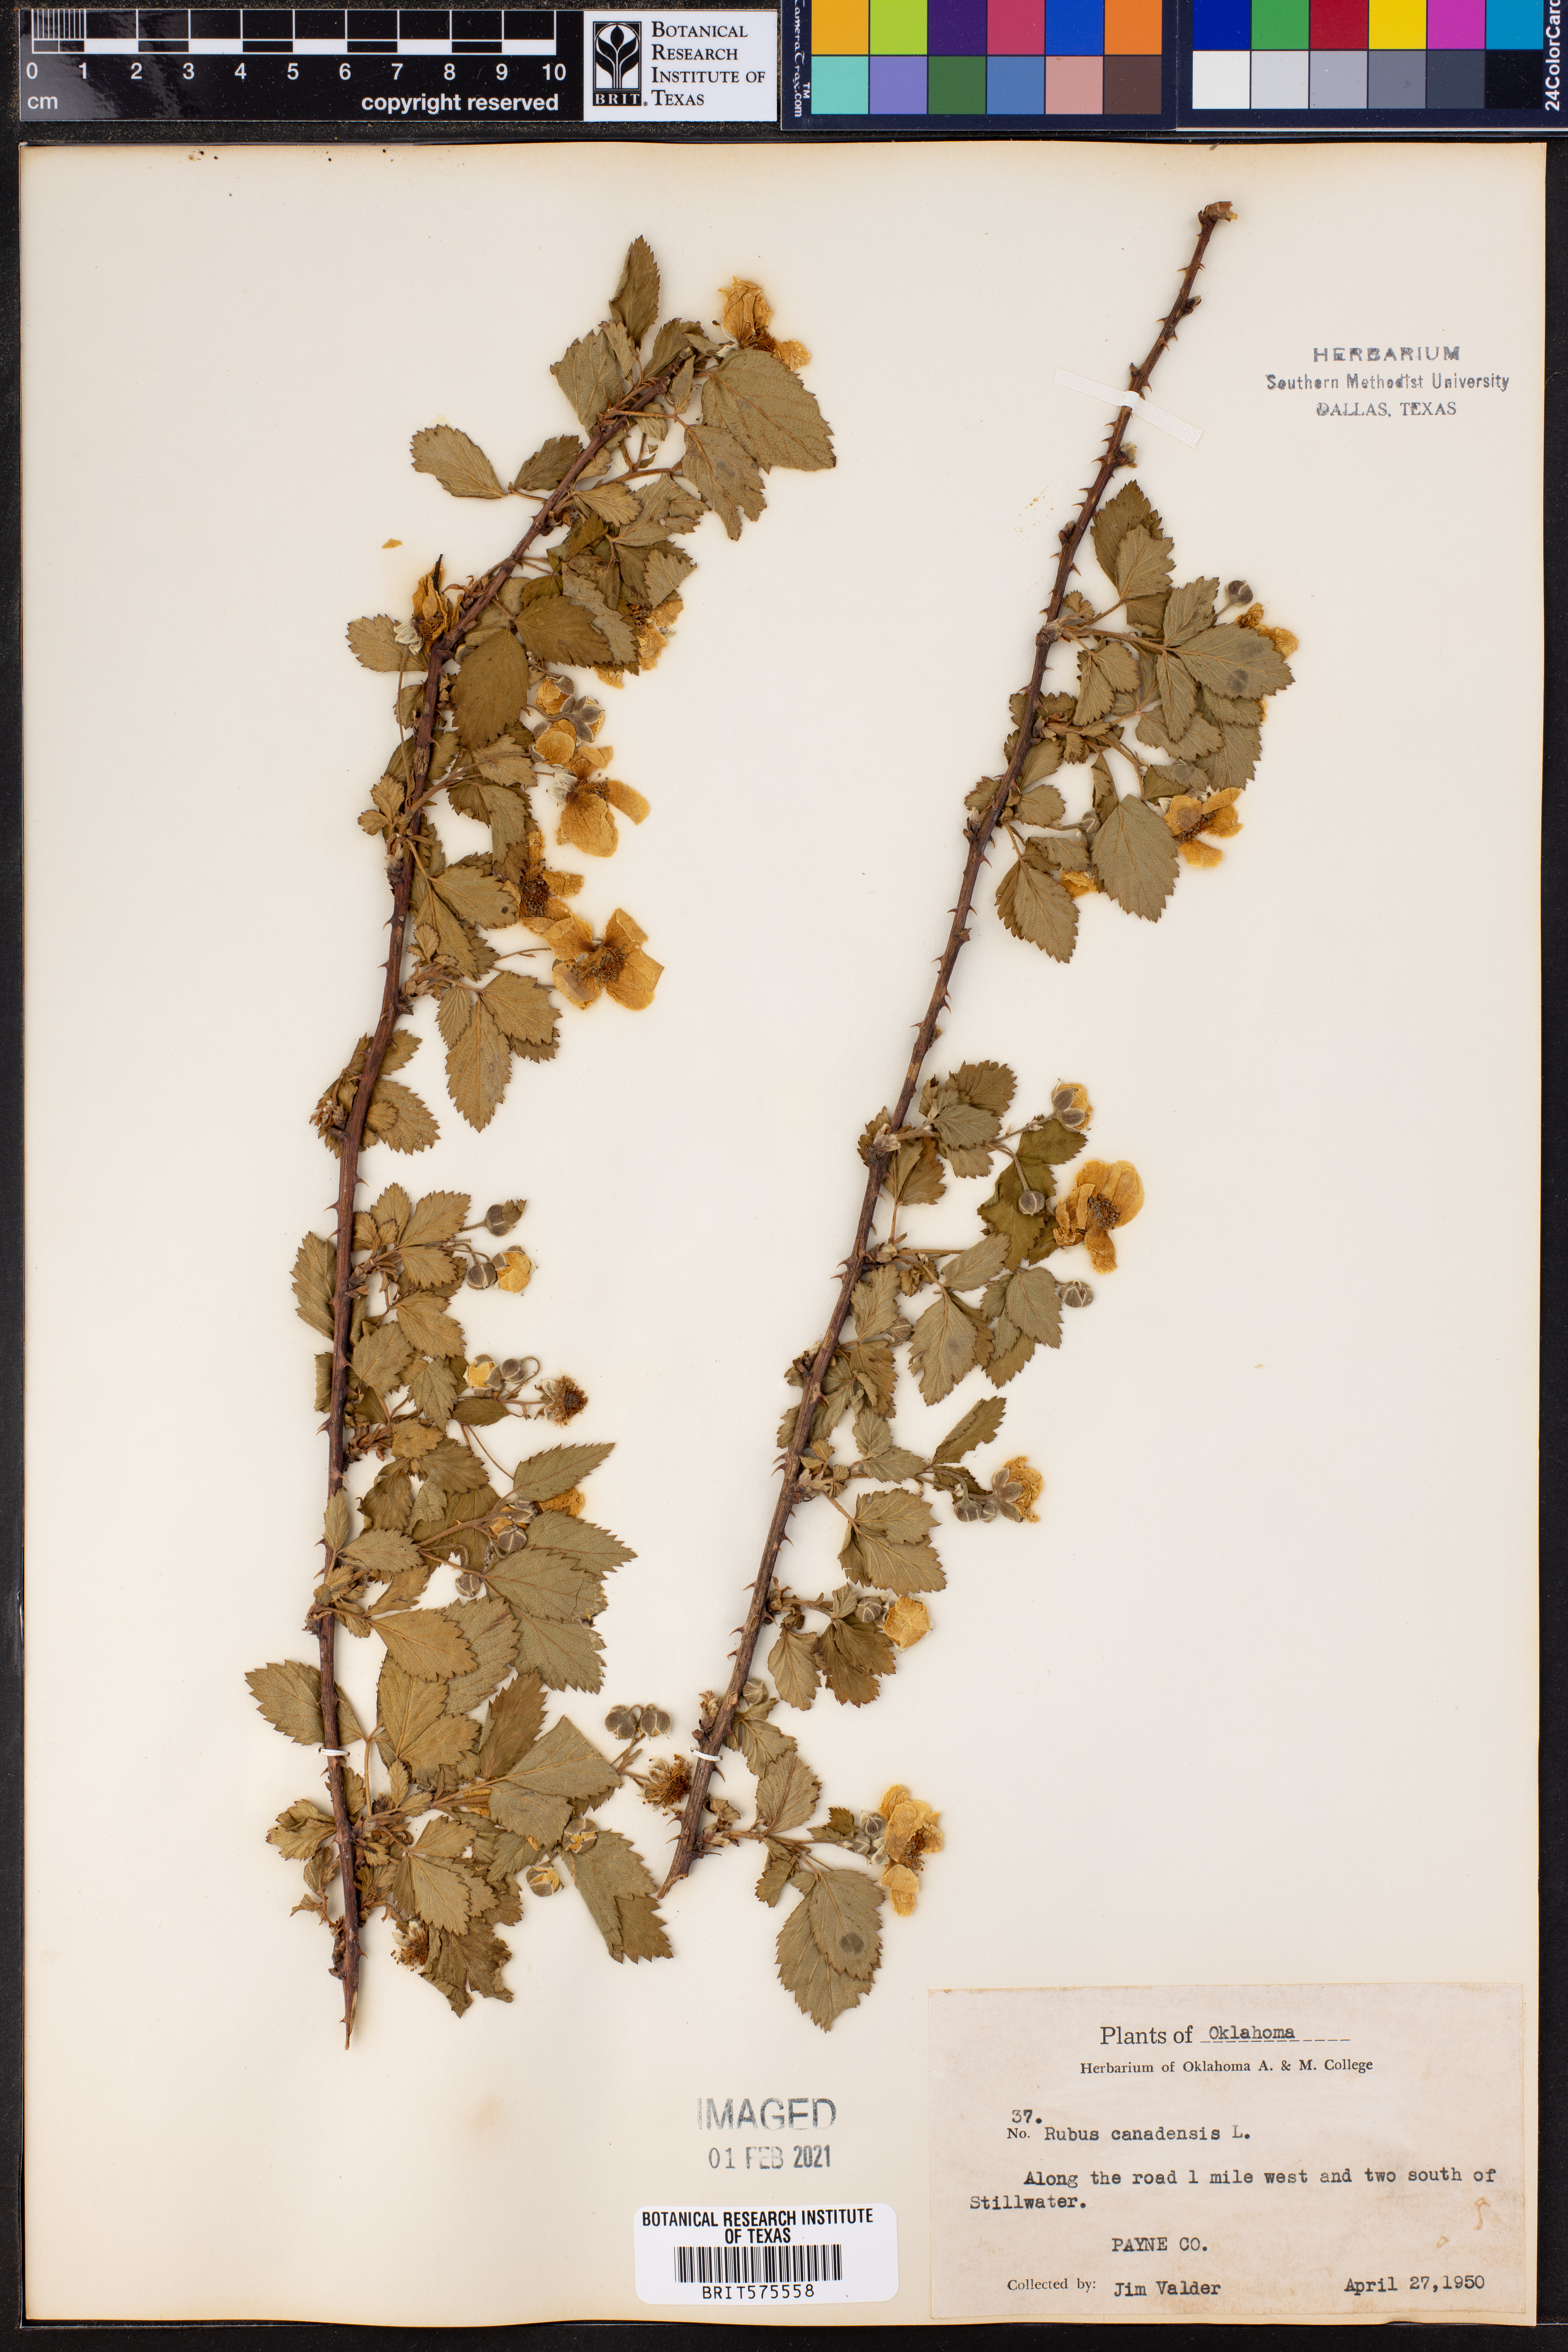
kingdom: Plantae
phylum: Tracheophyta
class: Magnoliopsida
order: Rosales
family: Rosaceae
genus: Rubus
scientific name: Rubus canadensis
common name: Smooth blackberry
